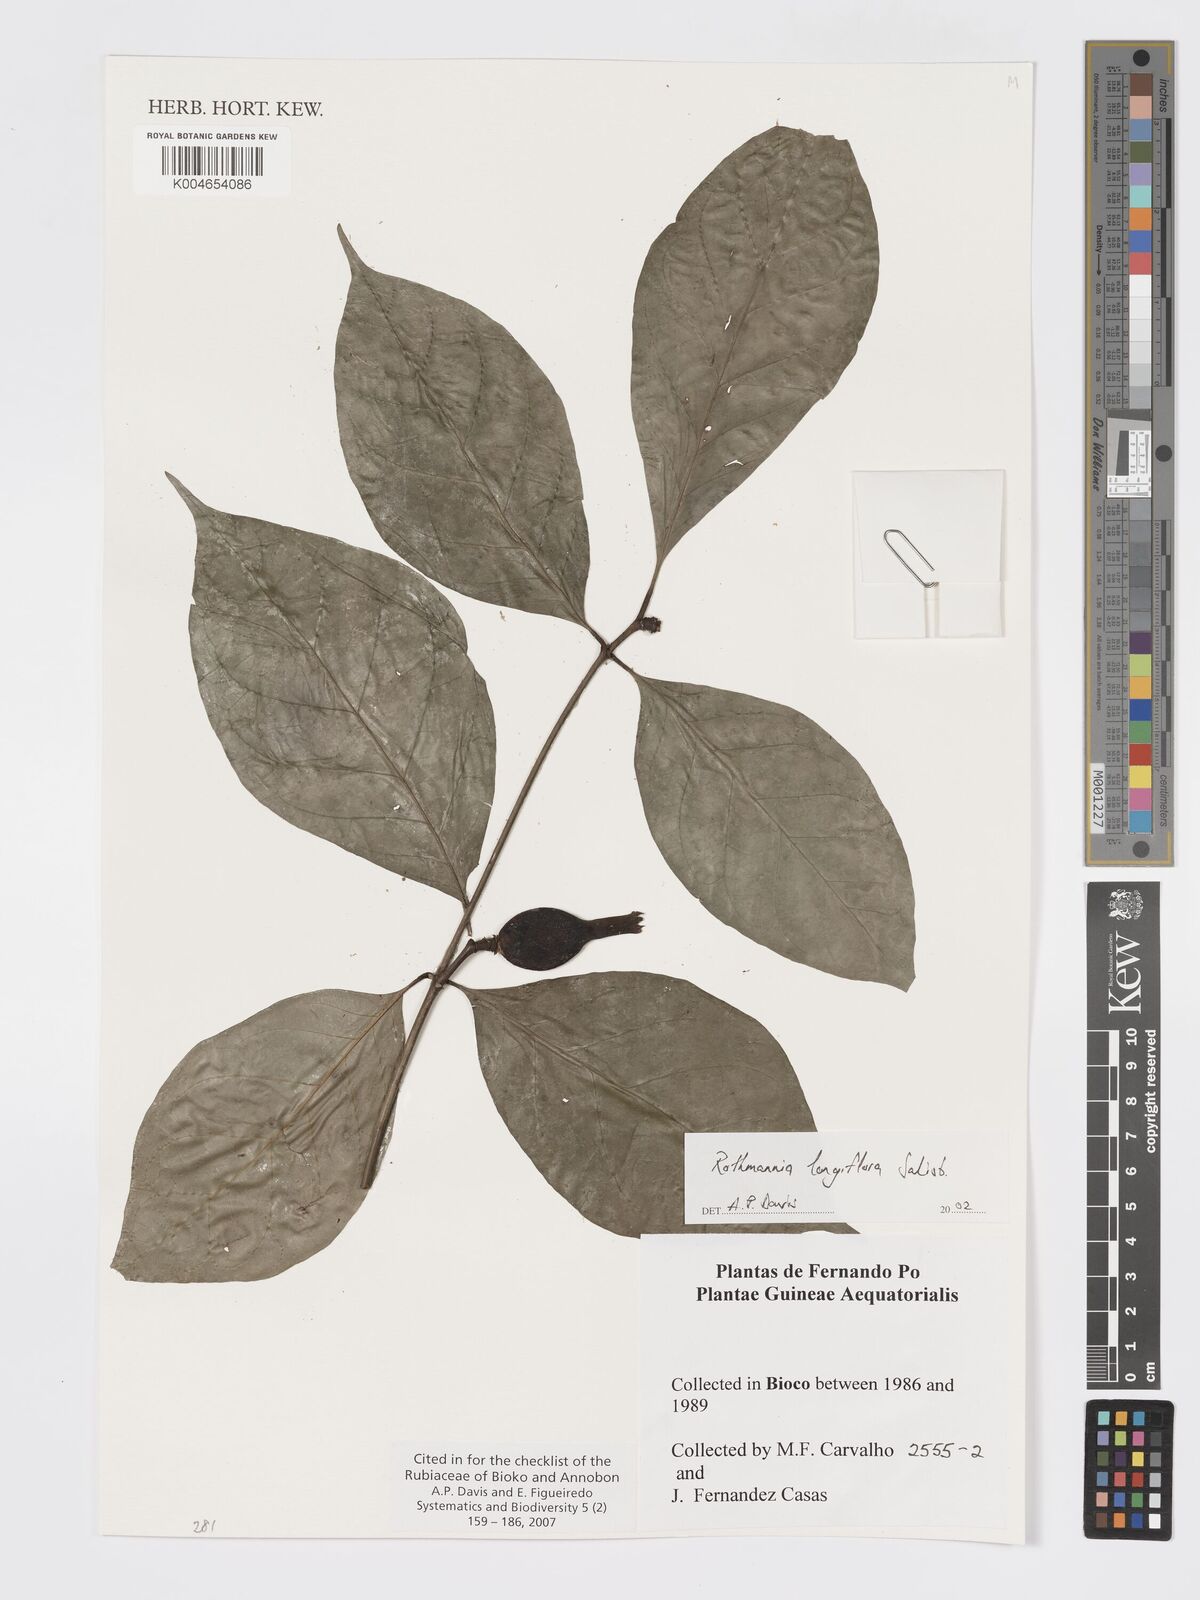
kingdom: Plantae
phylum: Tracheophyta
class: Magnoliopsida
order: Gentianales
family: Rubiaceae
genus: Rothmannia
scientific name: Rothmannia longiflora
